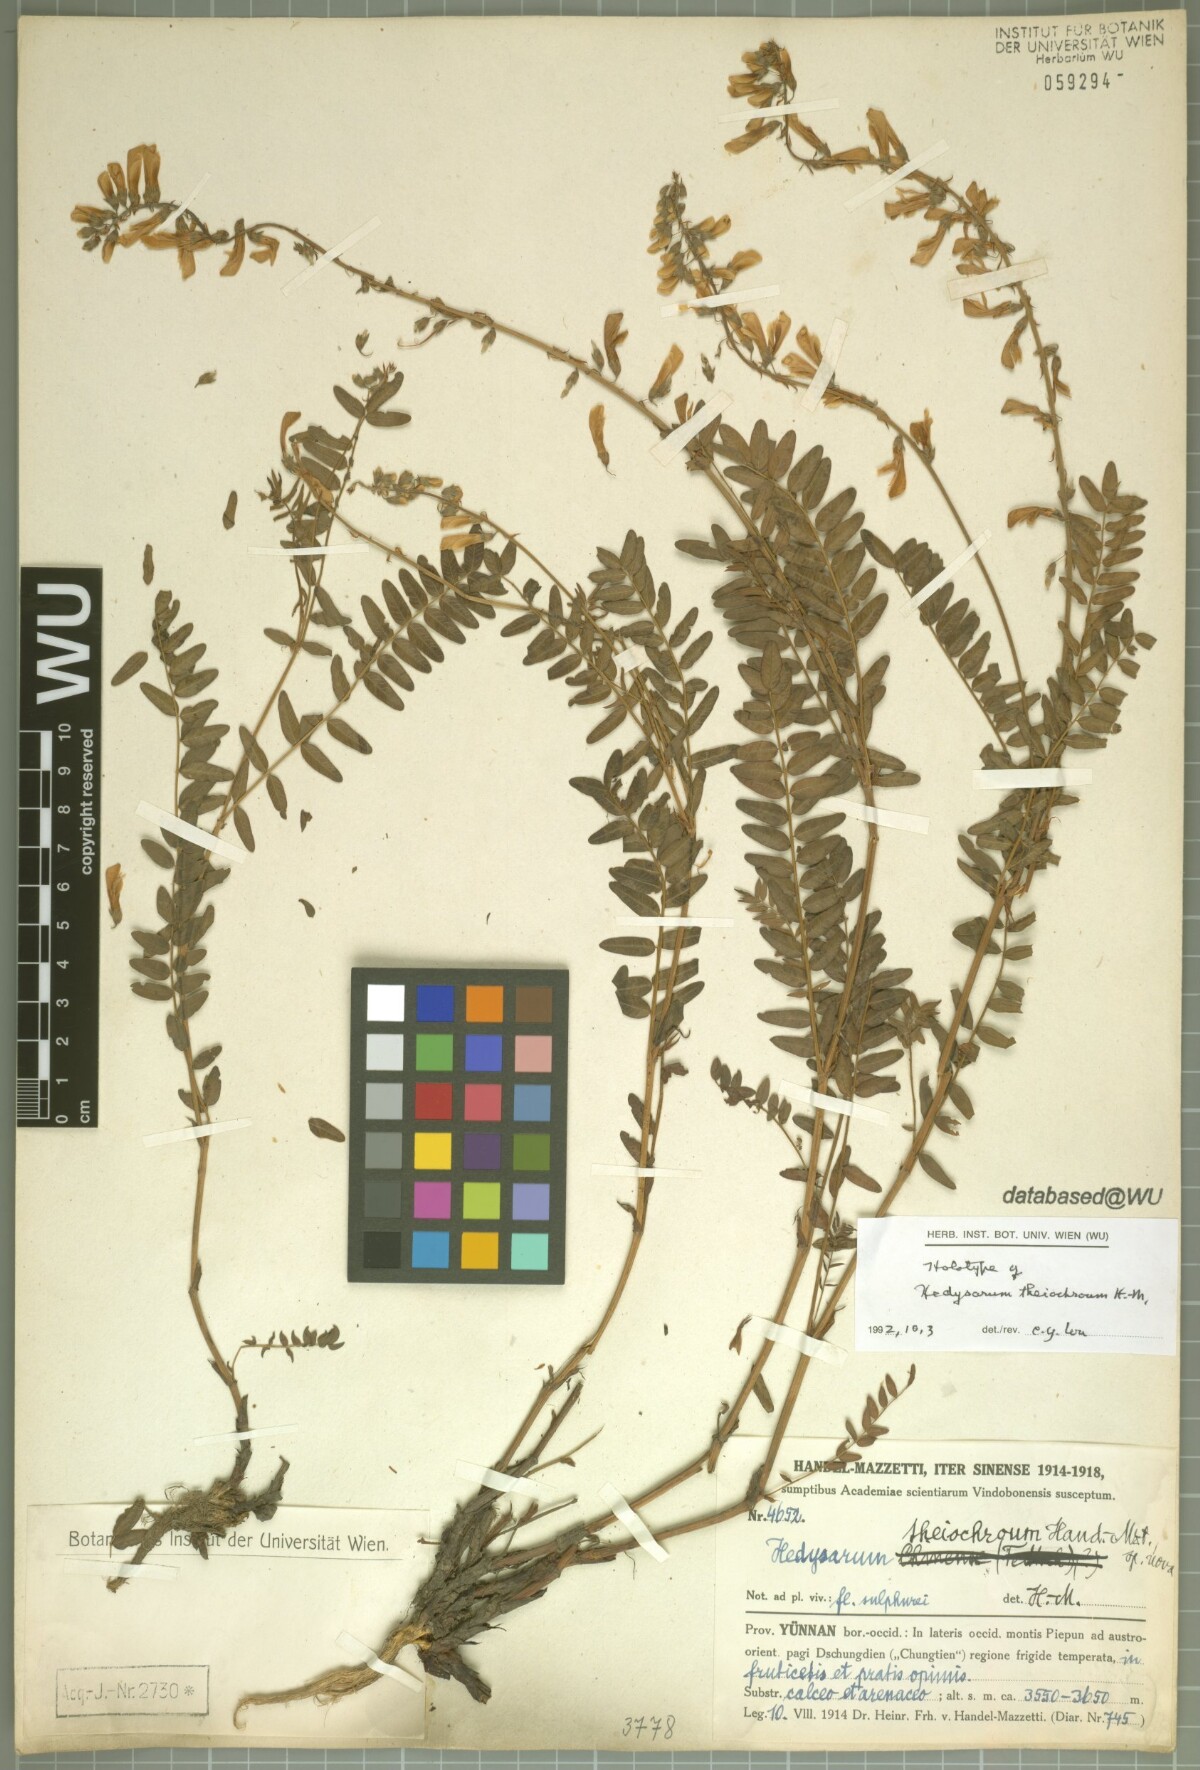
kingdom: Plantae
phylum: Tracheophyta
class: Magnoliopsida
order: Fabales
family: Fabaceae
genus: Hedysarum
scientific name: Hedysarum thiochroum
